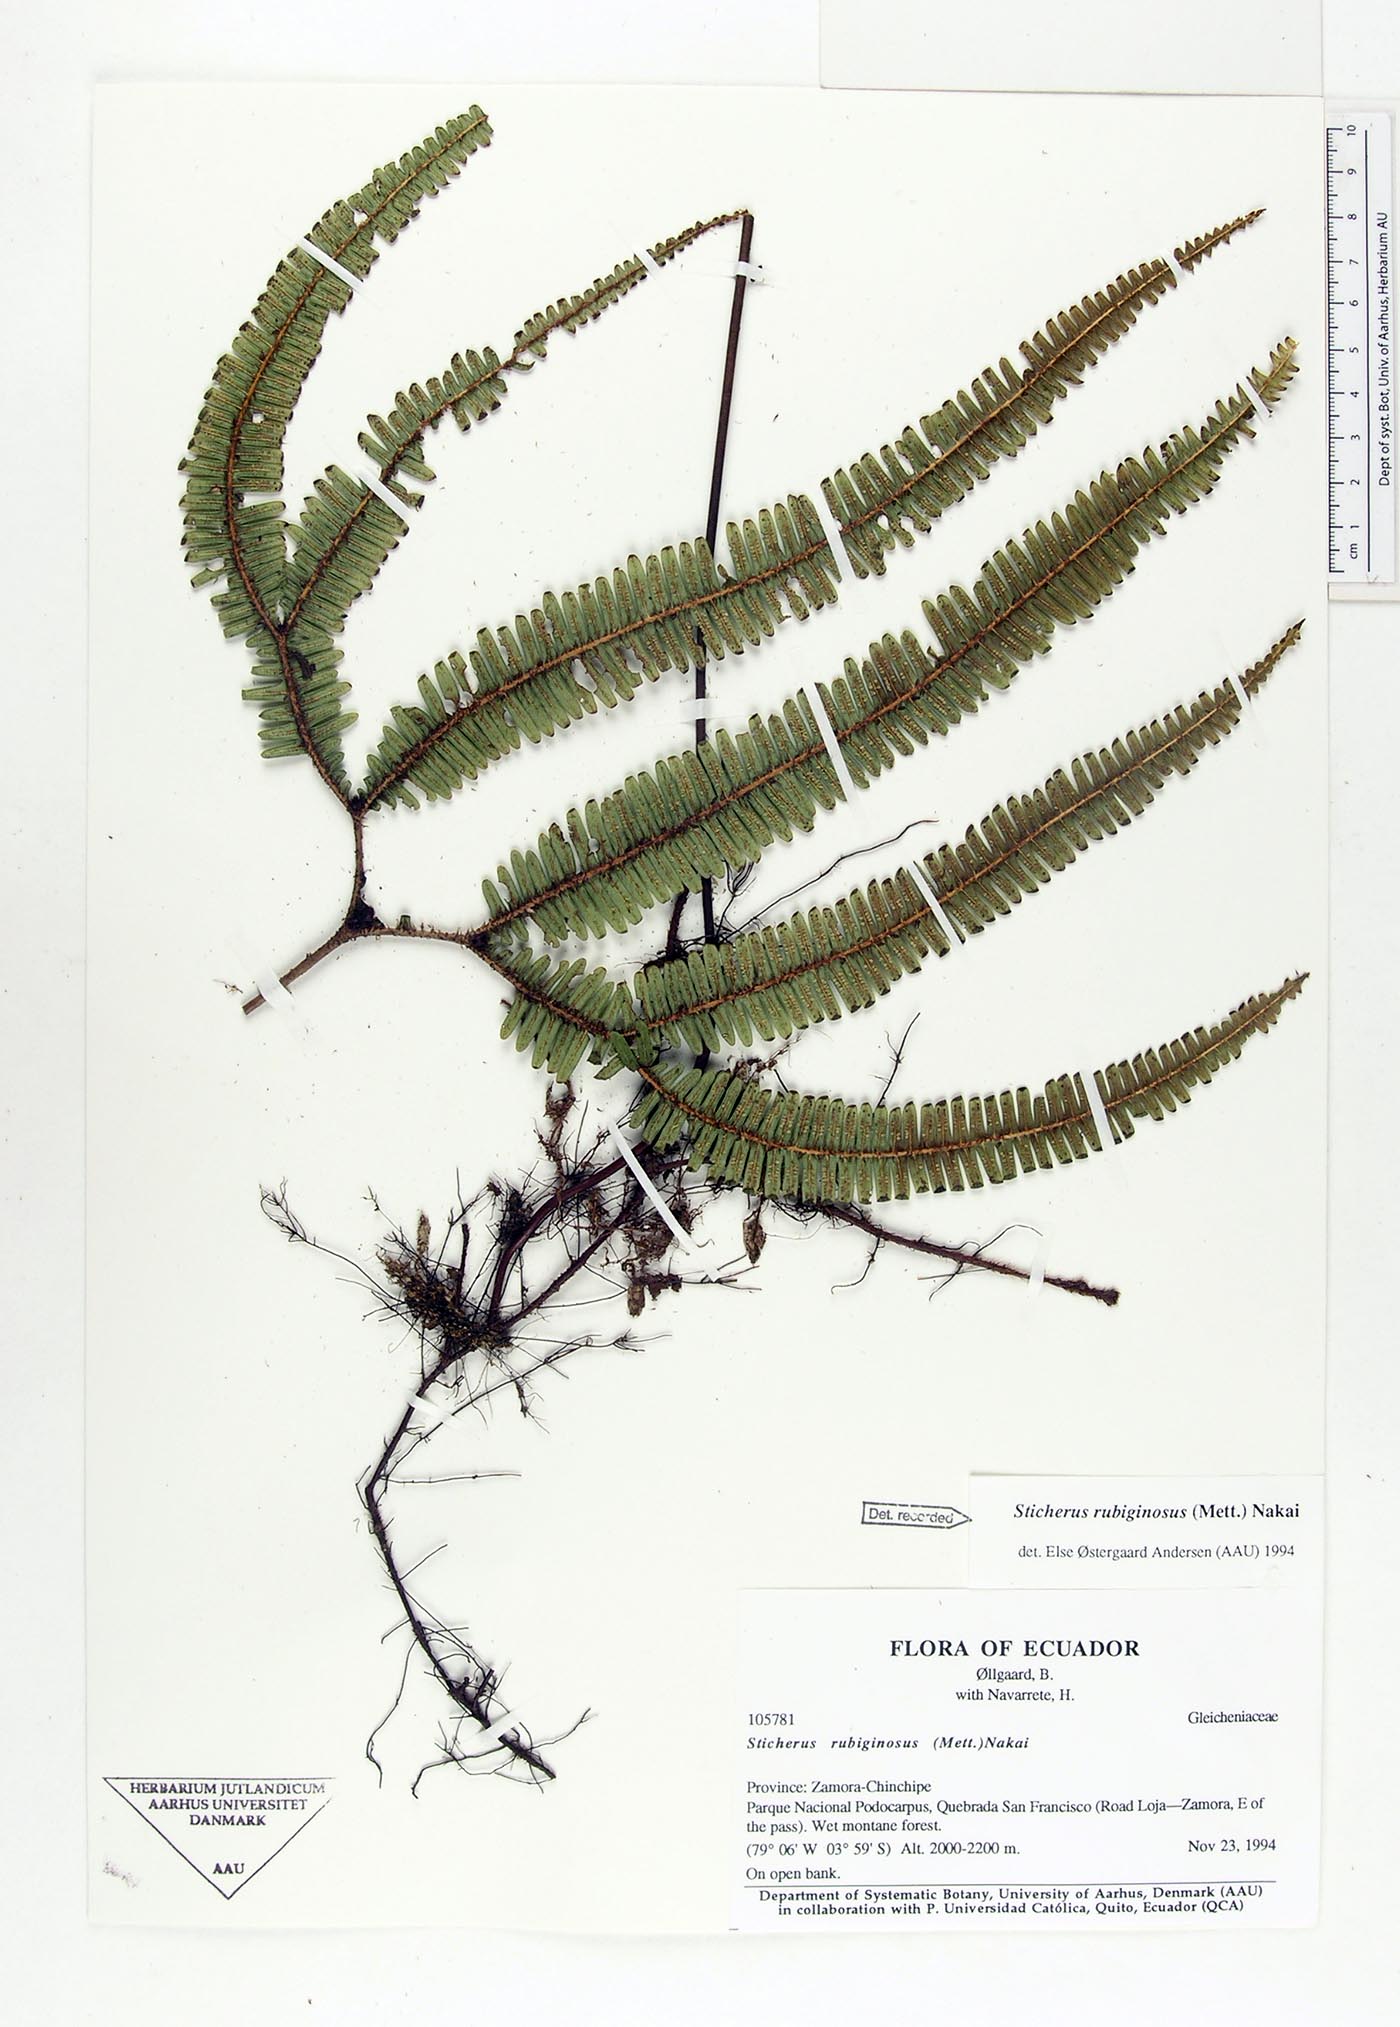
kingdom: Plantae
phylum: Tracheophyta
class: Polypodiopsida
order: Gleicheniales
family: Gleicheniaceae
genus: Sticherus
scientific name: Sticherus rubiginosus
